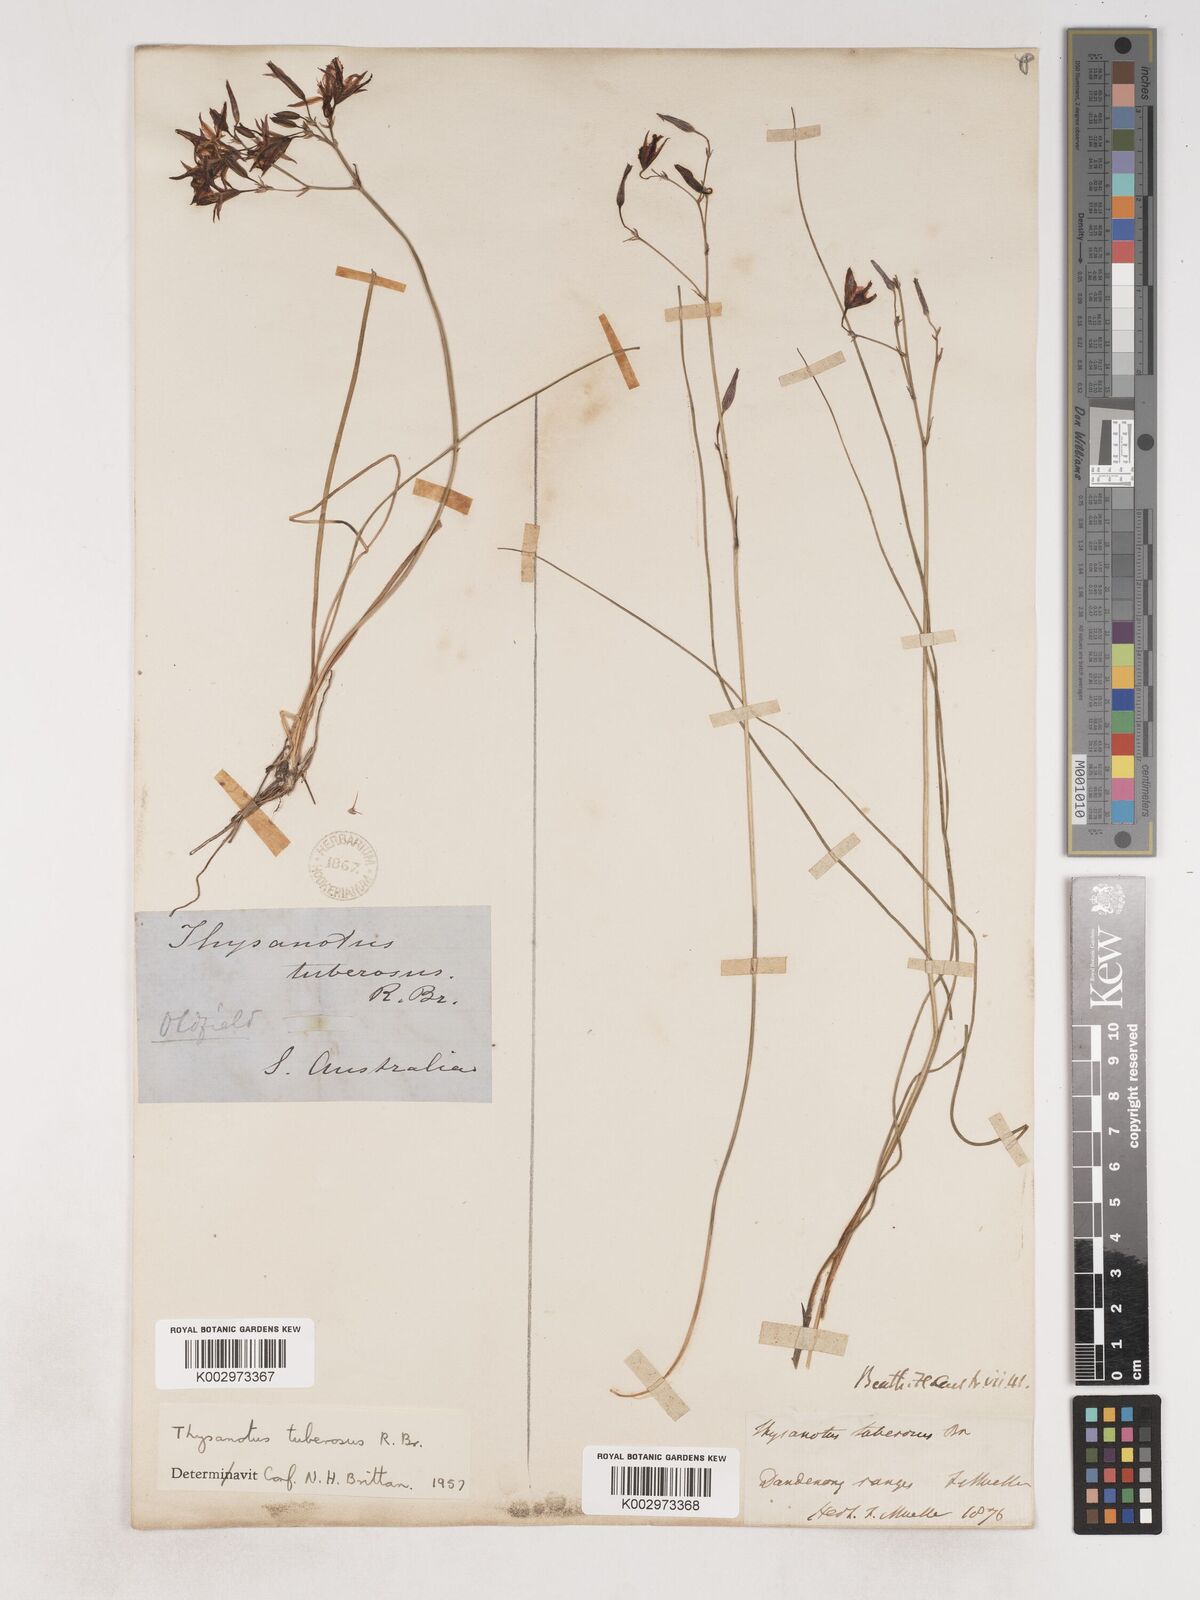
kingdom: Plantae
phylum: Tracheophyta
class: Liliopsida
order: Asparagales
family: Asparagaceae
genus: Thysanotus
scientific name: Thysanotus tuberosus
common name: Common fringed-lily
